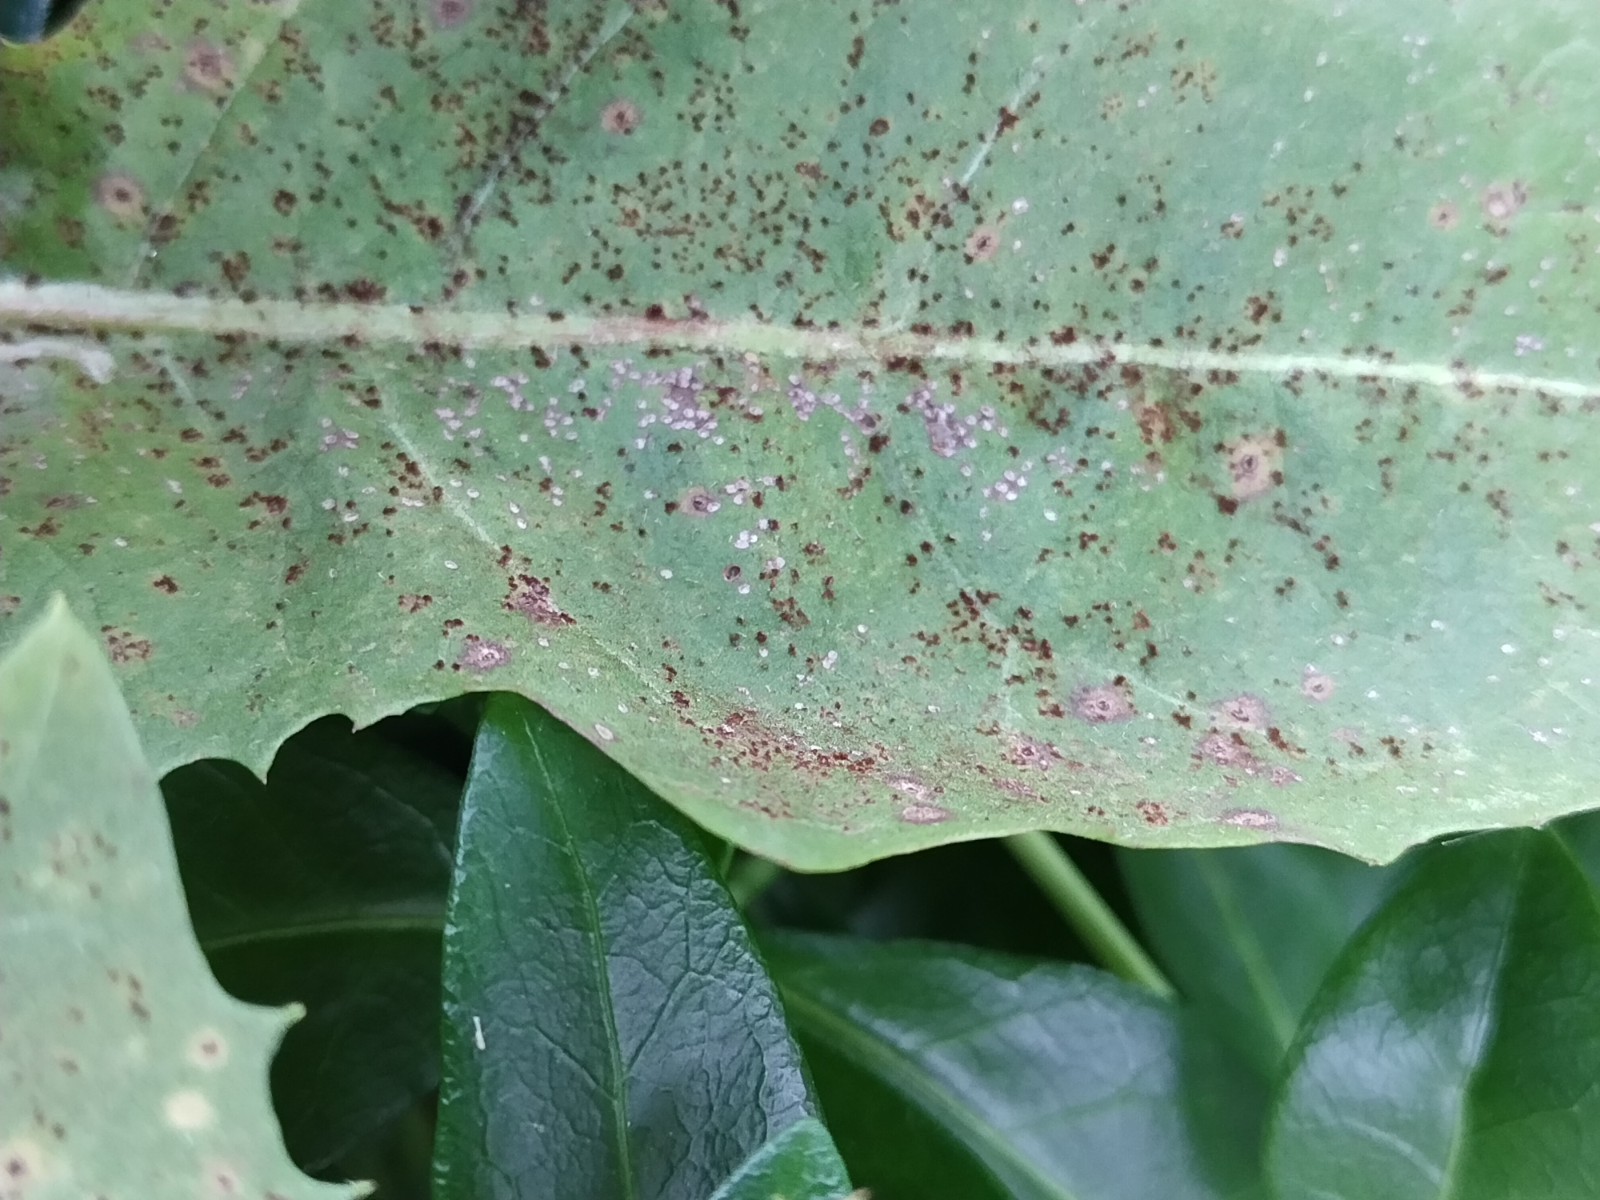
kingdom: Fungi
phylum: Basidiomycota
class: Pucciniomycetes
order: Pucciniales
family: Pucciniaceae
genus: Puccinia
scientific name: Puccinia hieracii
